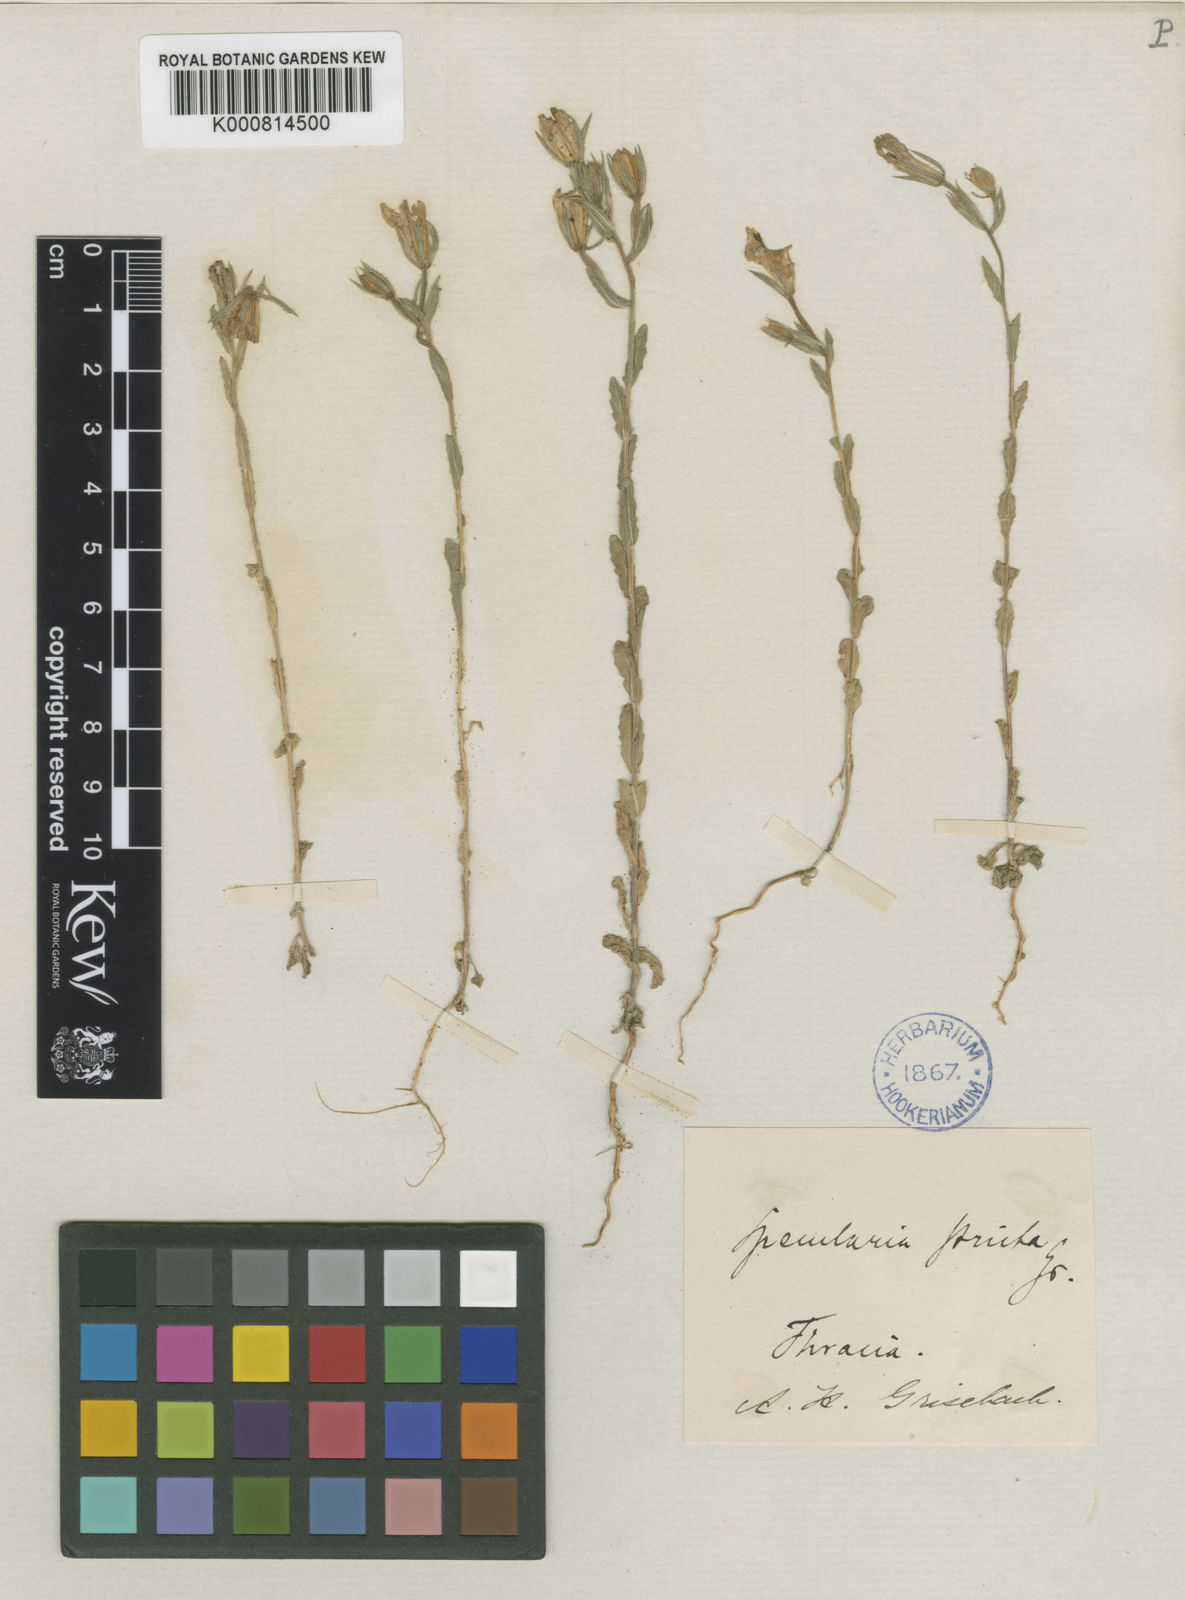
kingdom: Plantae
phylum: Tracheophyta
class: Magnoliopsida
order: Asterales
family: Campanulaceae
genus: Legousia
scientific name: Legousia pentagonia
